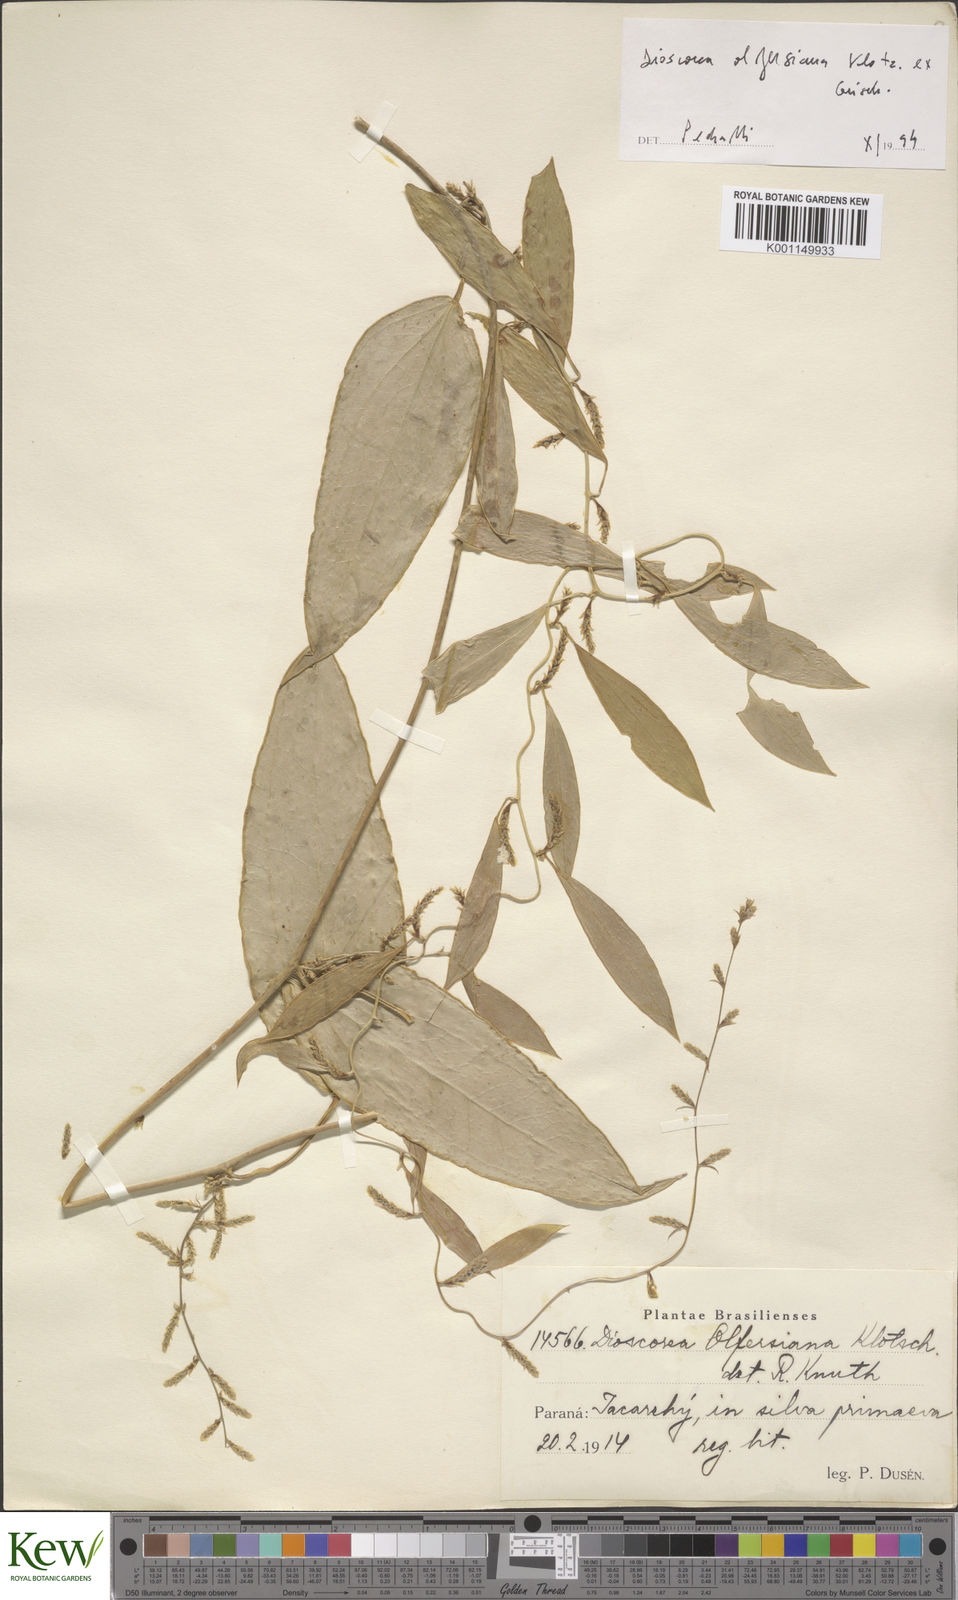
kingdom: Plantae
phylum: Tracheophyta
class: Liliopsida
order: Dioscoreales
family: Dioscoreaceae
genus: Dioscorea
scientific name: Dioscorea olfersiana
